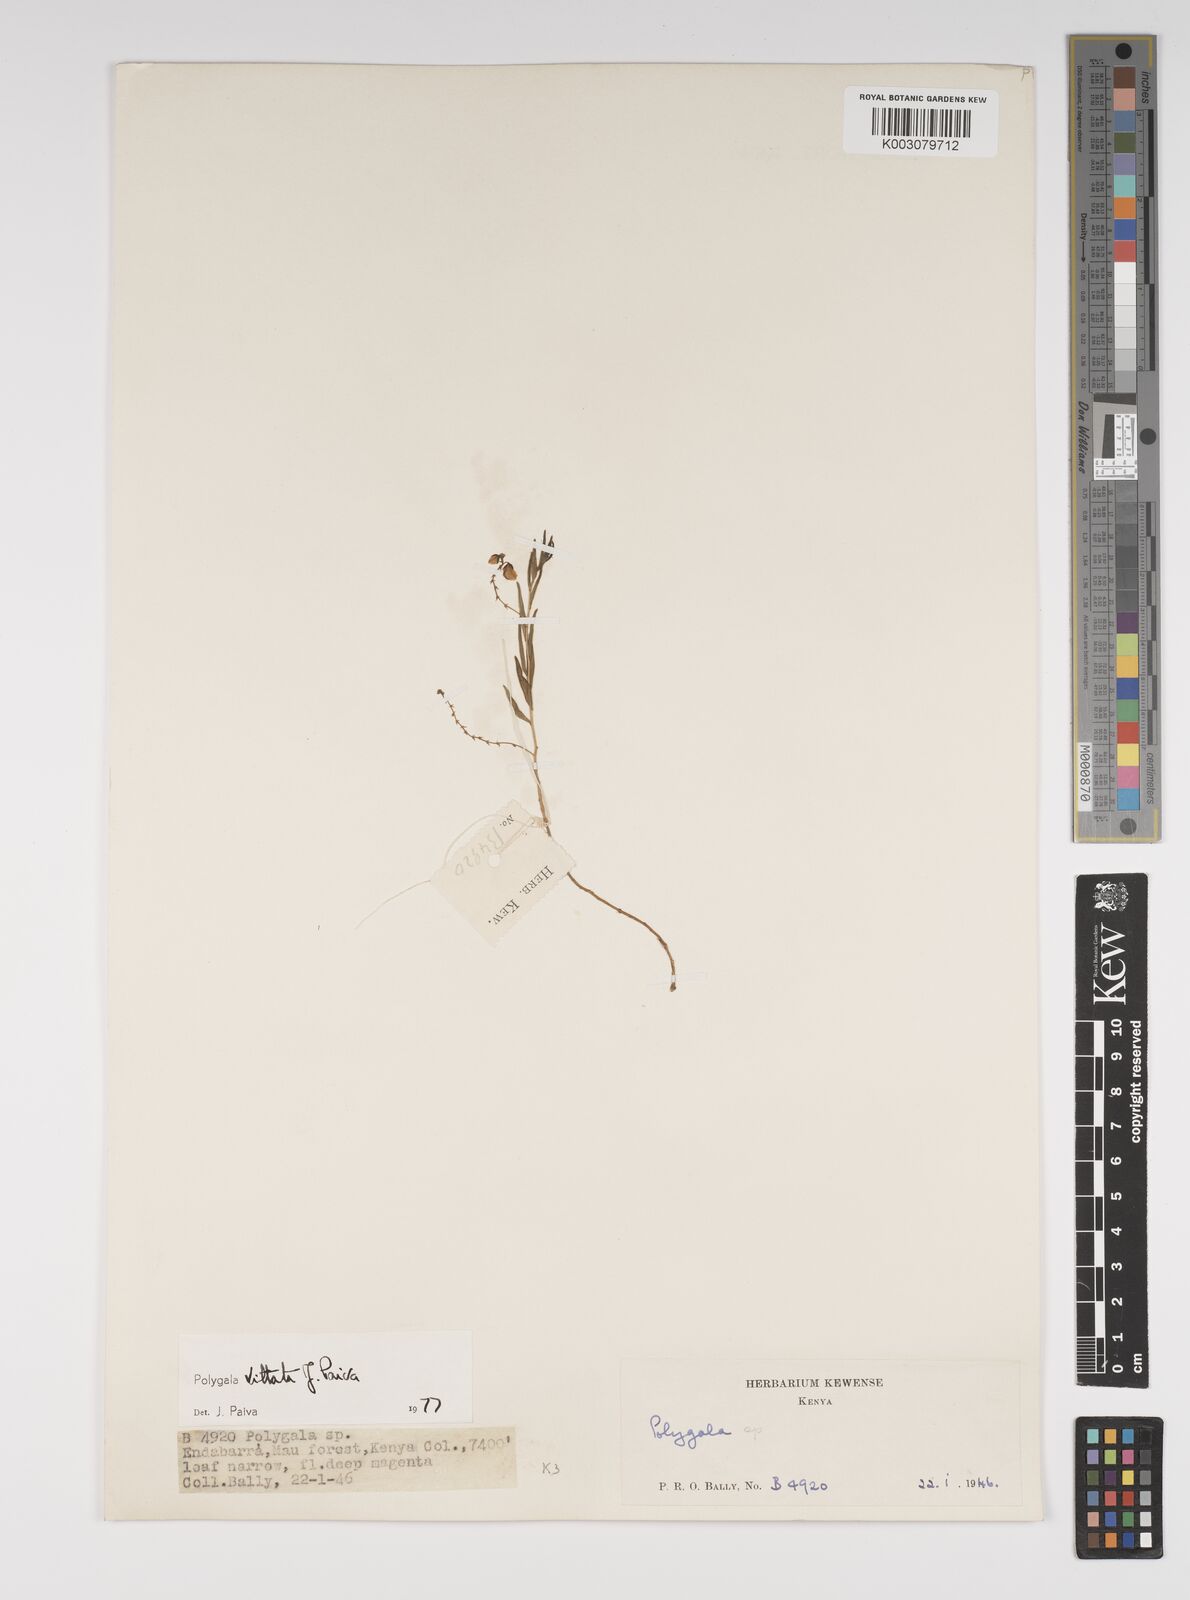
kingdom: Plantae
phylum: Tracheophyta
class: Magnoliopsida
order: Fabales
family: Polygalaceae
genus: Polygala
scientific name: Polygala vittata
